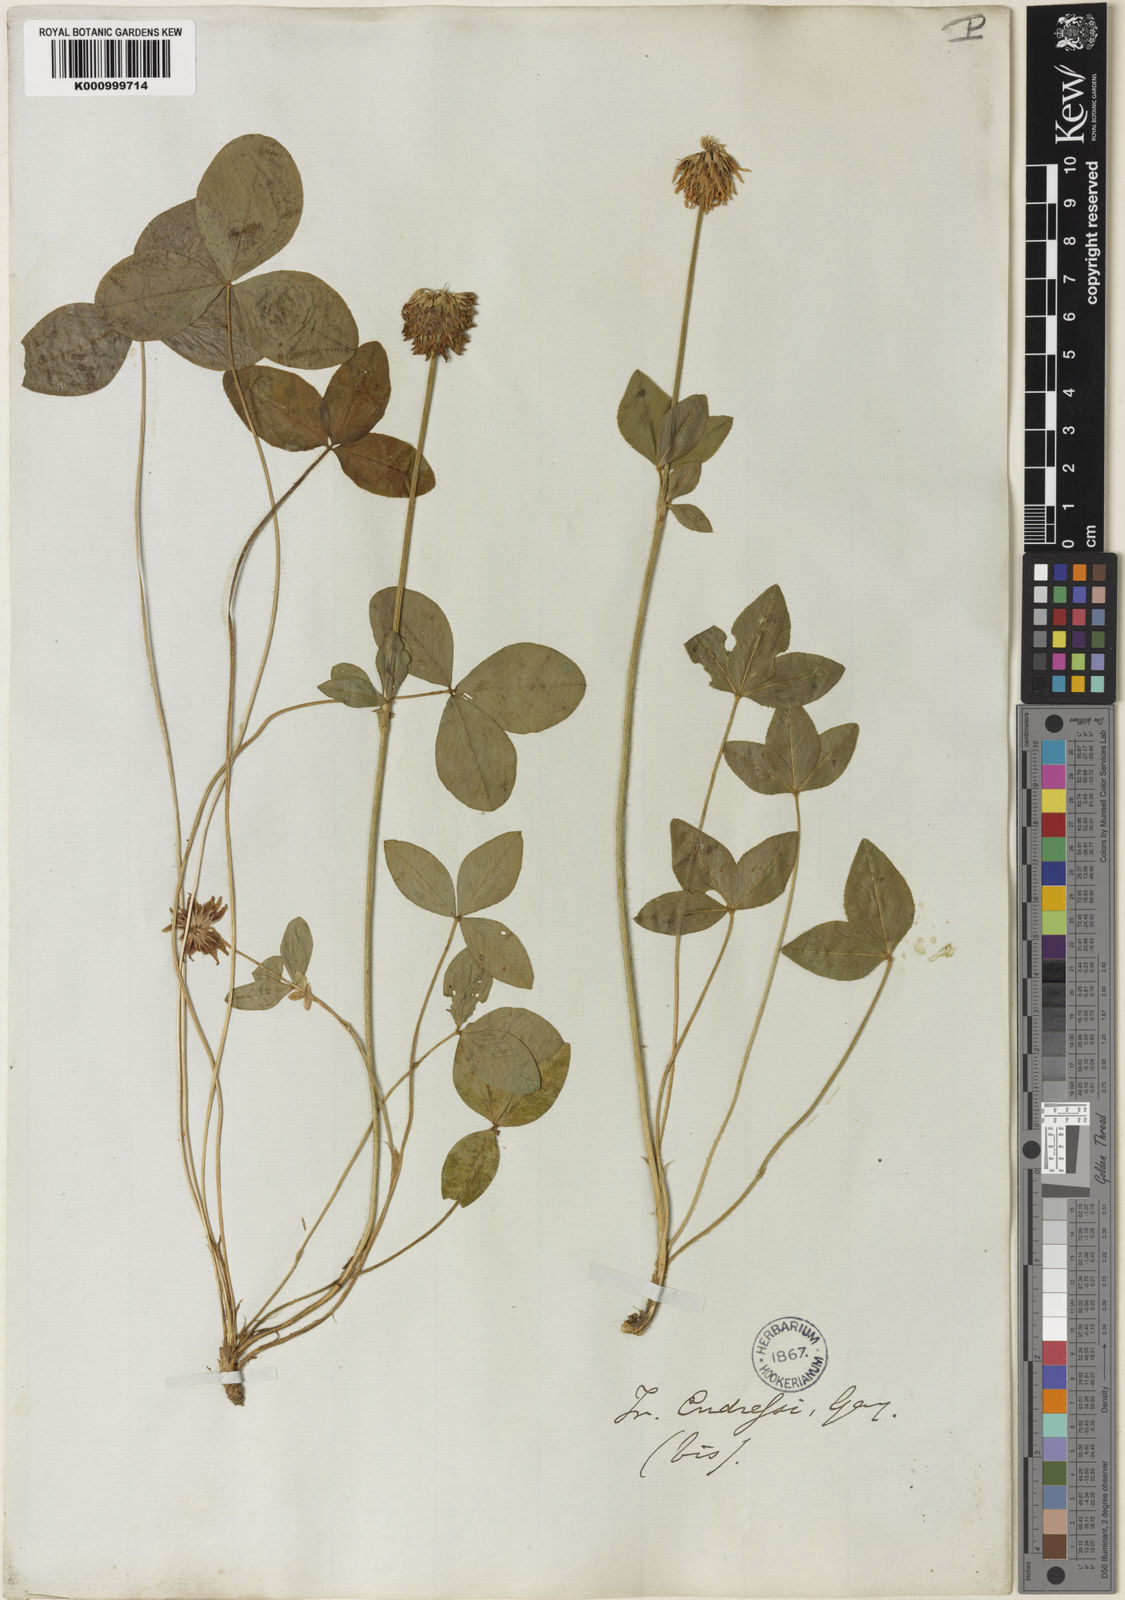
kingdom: Plantae
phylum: Tracheophyta
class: Magnoliopsida
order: Fabales
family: Fabaceae
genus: Trifolium
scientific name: Trifolium montanum
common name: Mountain clover
